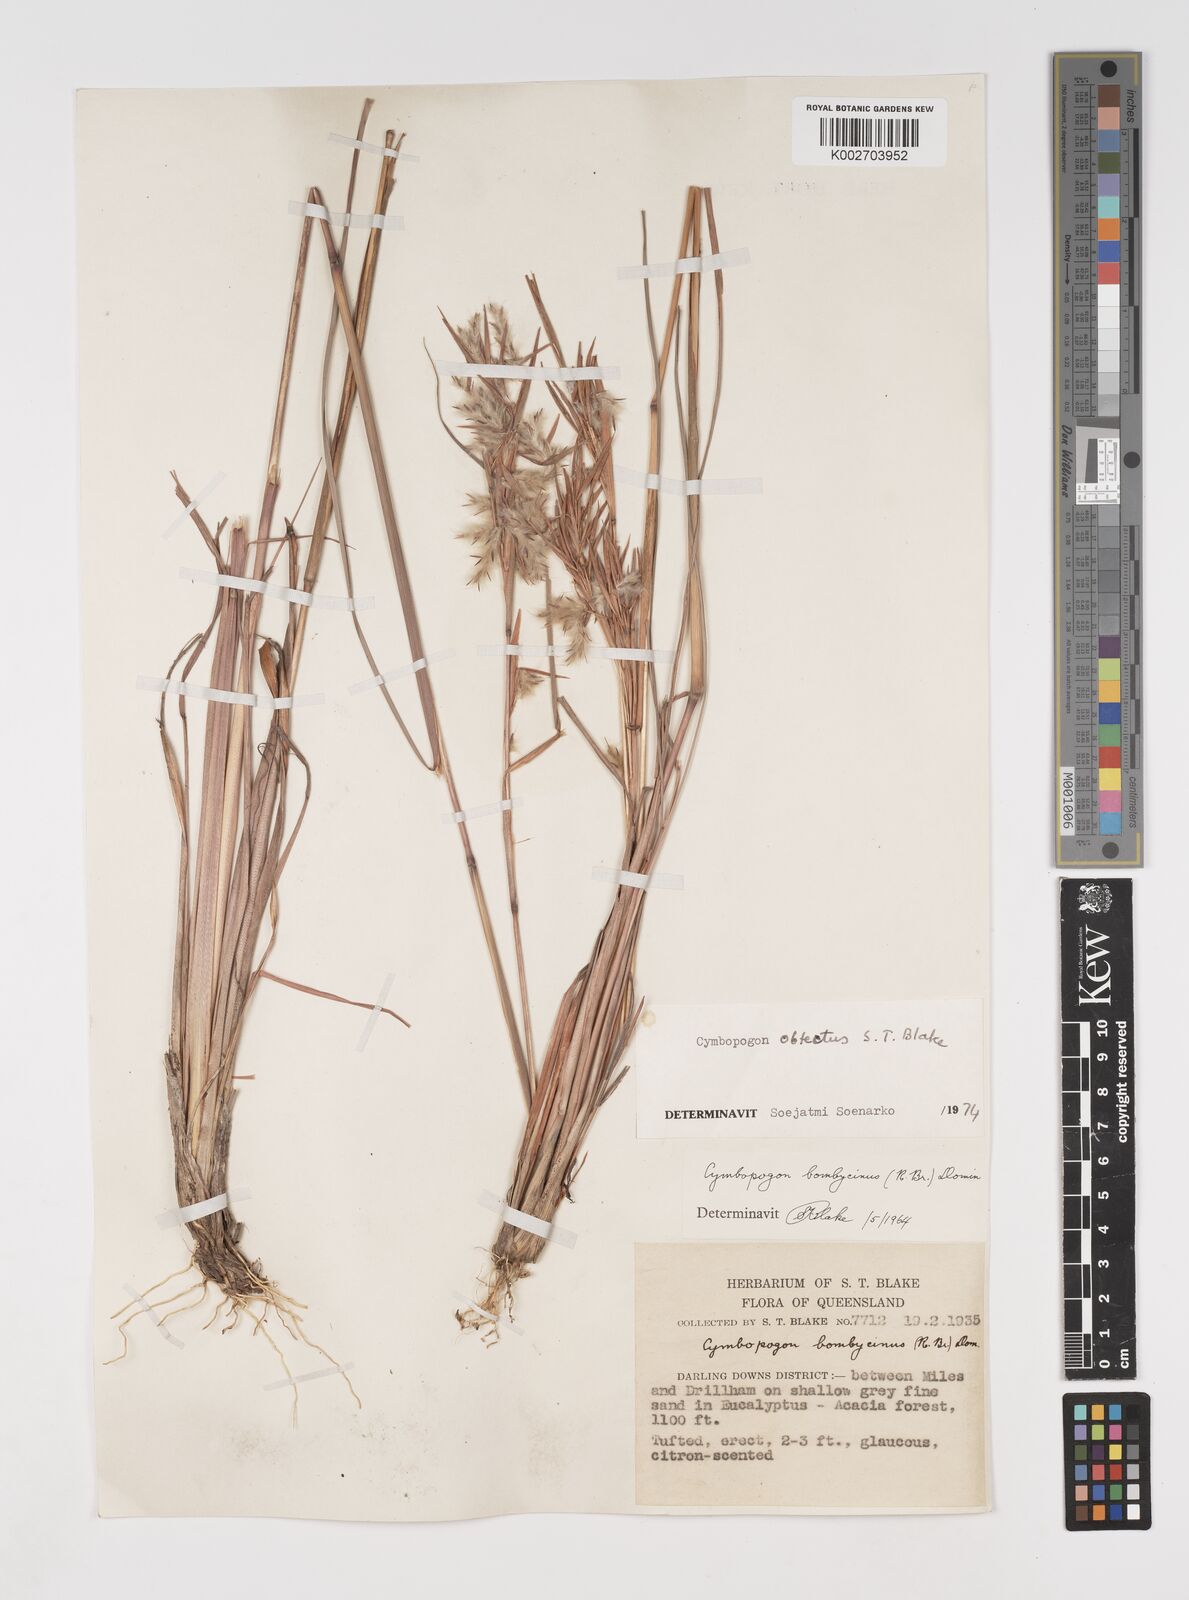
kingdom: Plantae
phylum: Tracheophyta
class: Liliopsida
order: Poales
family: Poaceae
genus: Cymbopogon
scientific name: Cymbopogon obtectus
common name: Silky heads
